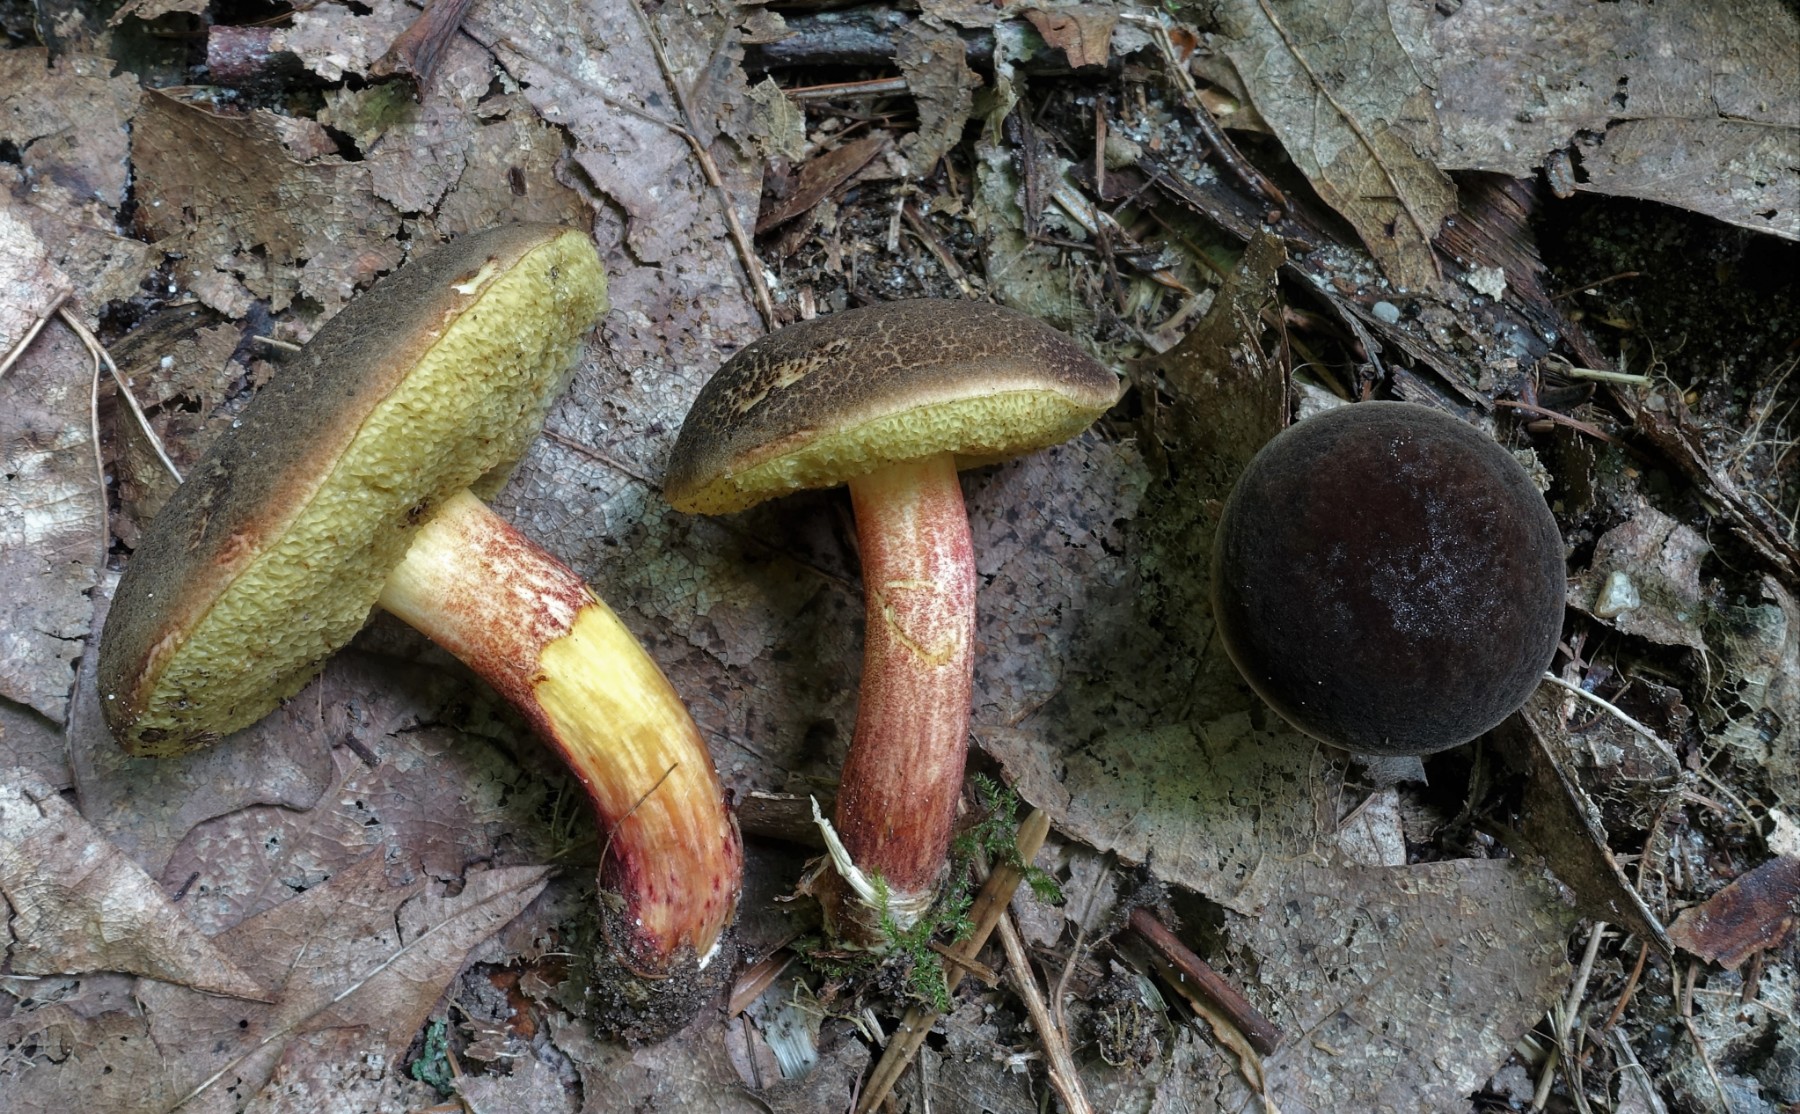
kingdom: Fungi
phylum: Basidiomycota
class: Agaricomycetes
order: Boletales
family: Boletaceae
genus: Xerocomellus
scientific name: Xerocomellus chrysenteron
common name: rødsprukken rørhat
